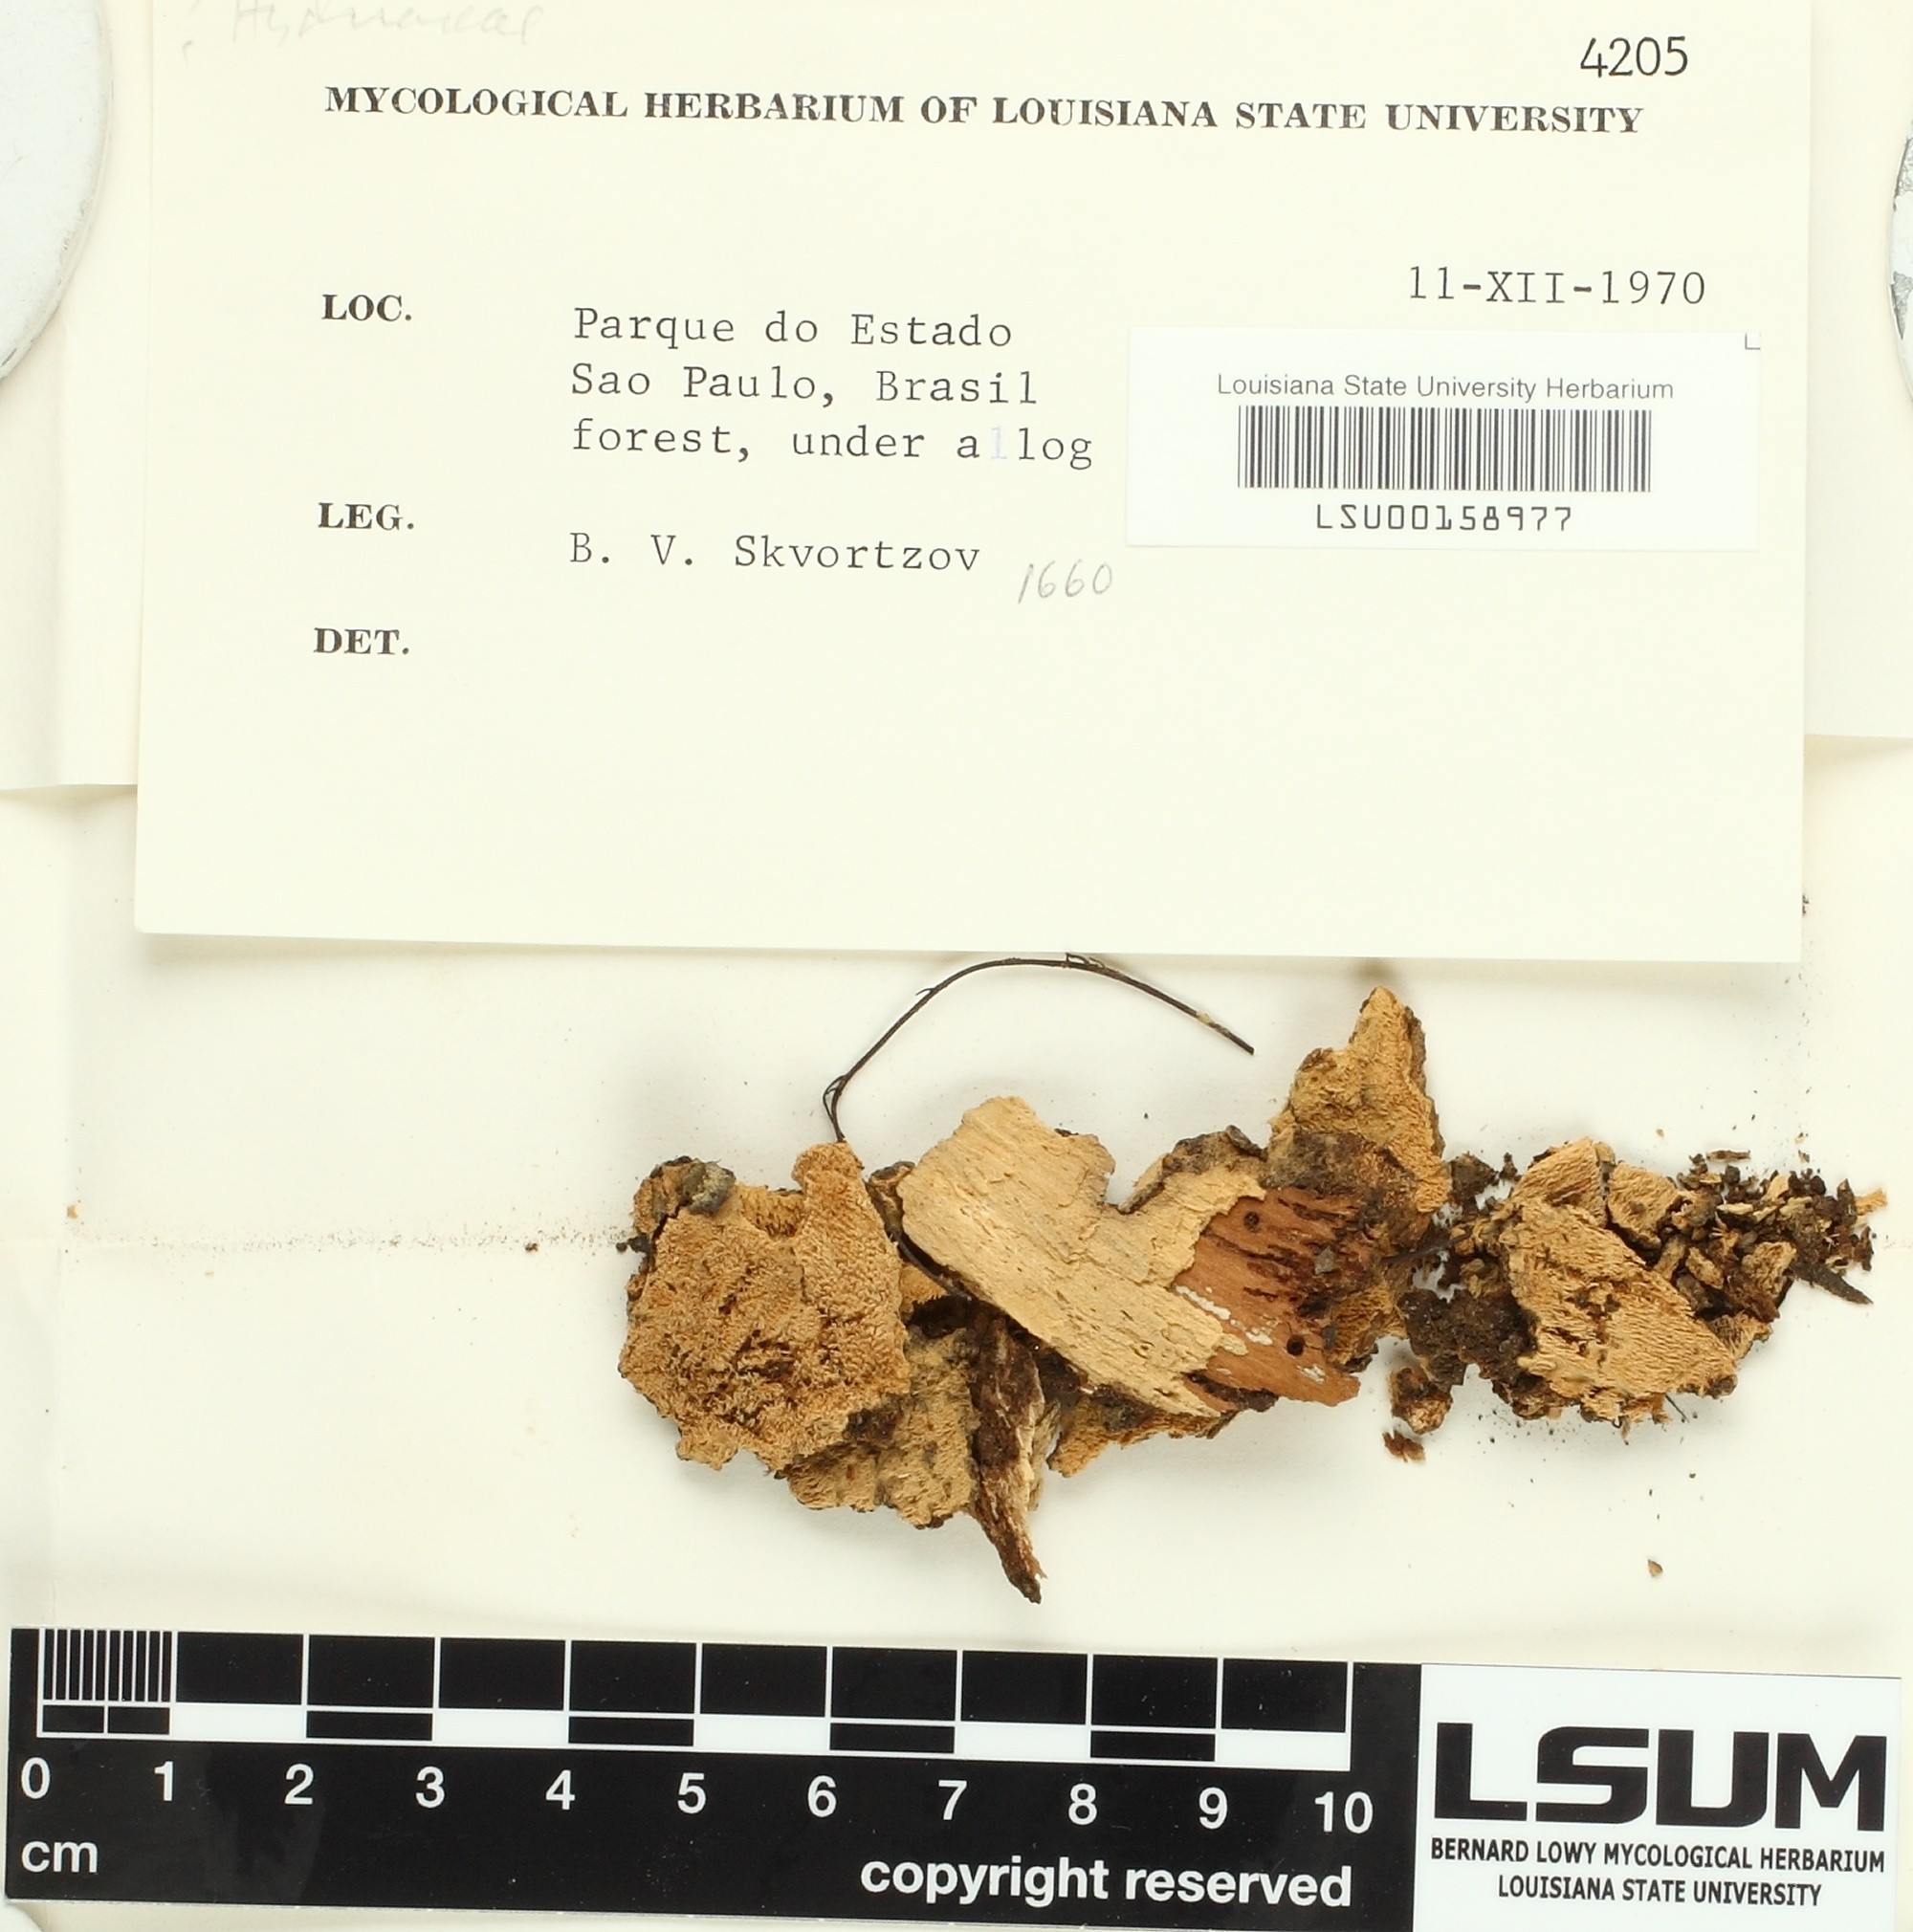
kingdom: Fungi
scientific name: Fungi
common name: Fungi
